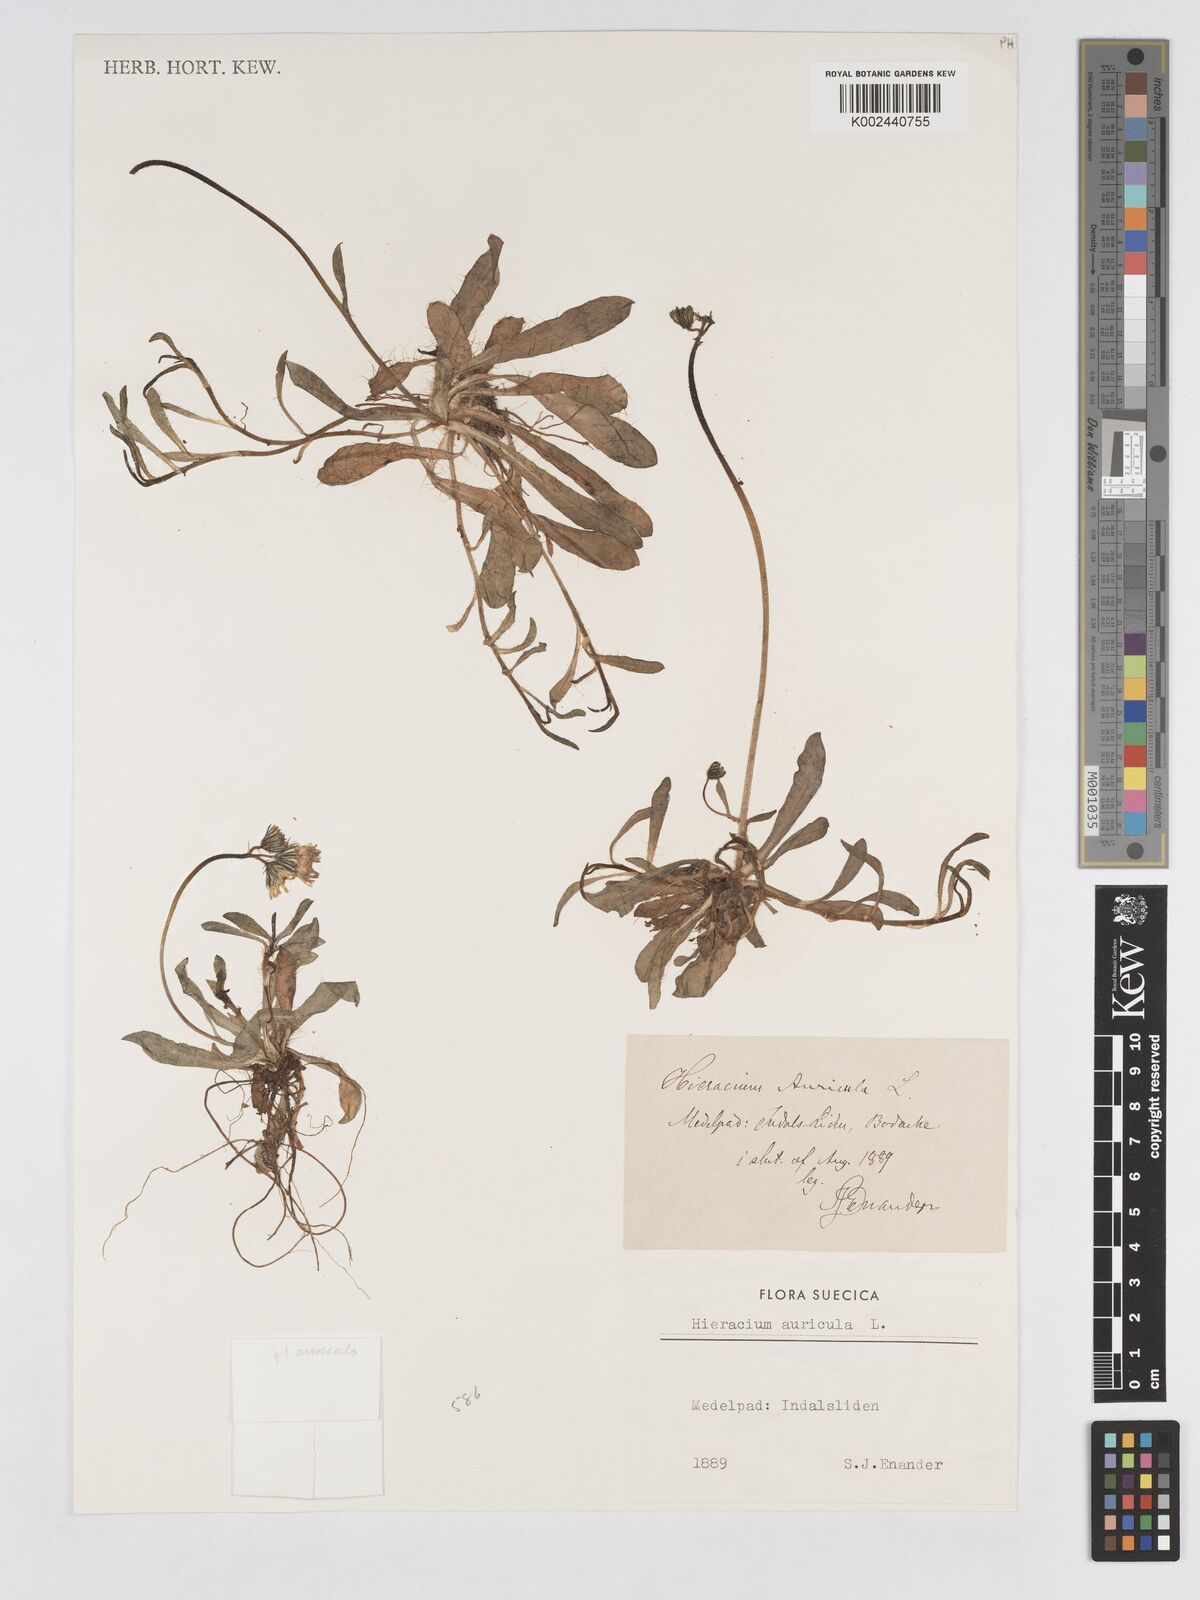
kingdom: Plantae
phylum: Tracheophyta
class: Magnoliopsida
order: Asterales
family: Asteraceae
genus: Pilosella
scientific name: Pilosella floribunda
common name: Glaucous hawkweed
